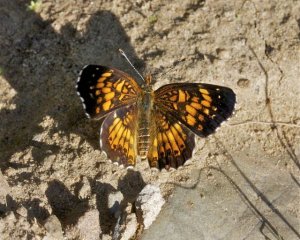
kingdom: Animalia
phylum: Arthropoda
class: Insecta
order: Lepidoptera
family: Nymphalidae
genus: Chlosyne
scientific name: Chlosyne harrisii
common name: Harris's Checkerspot
